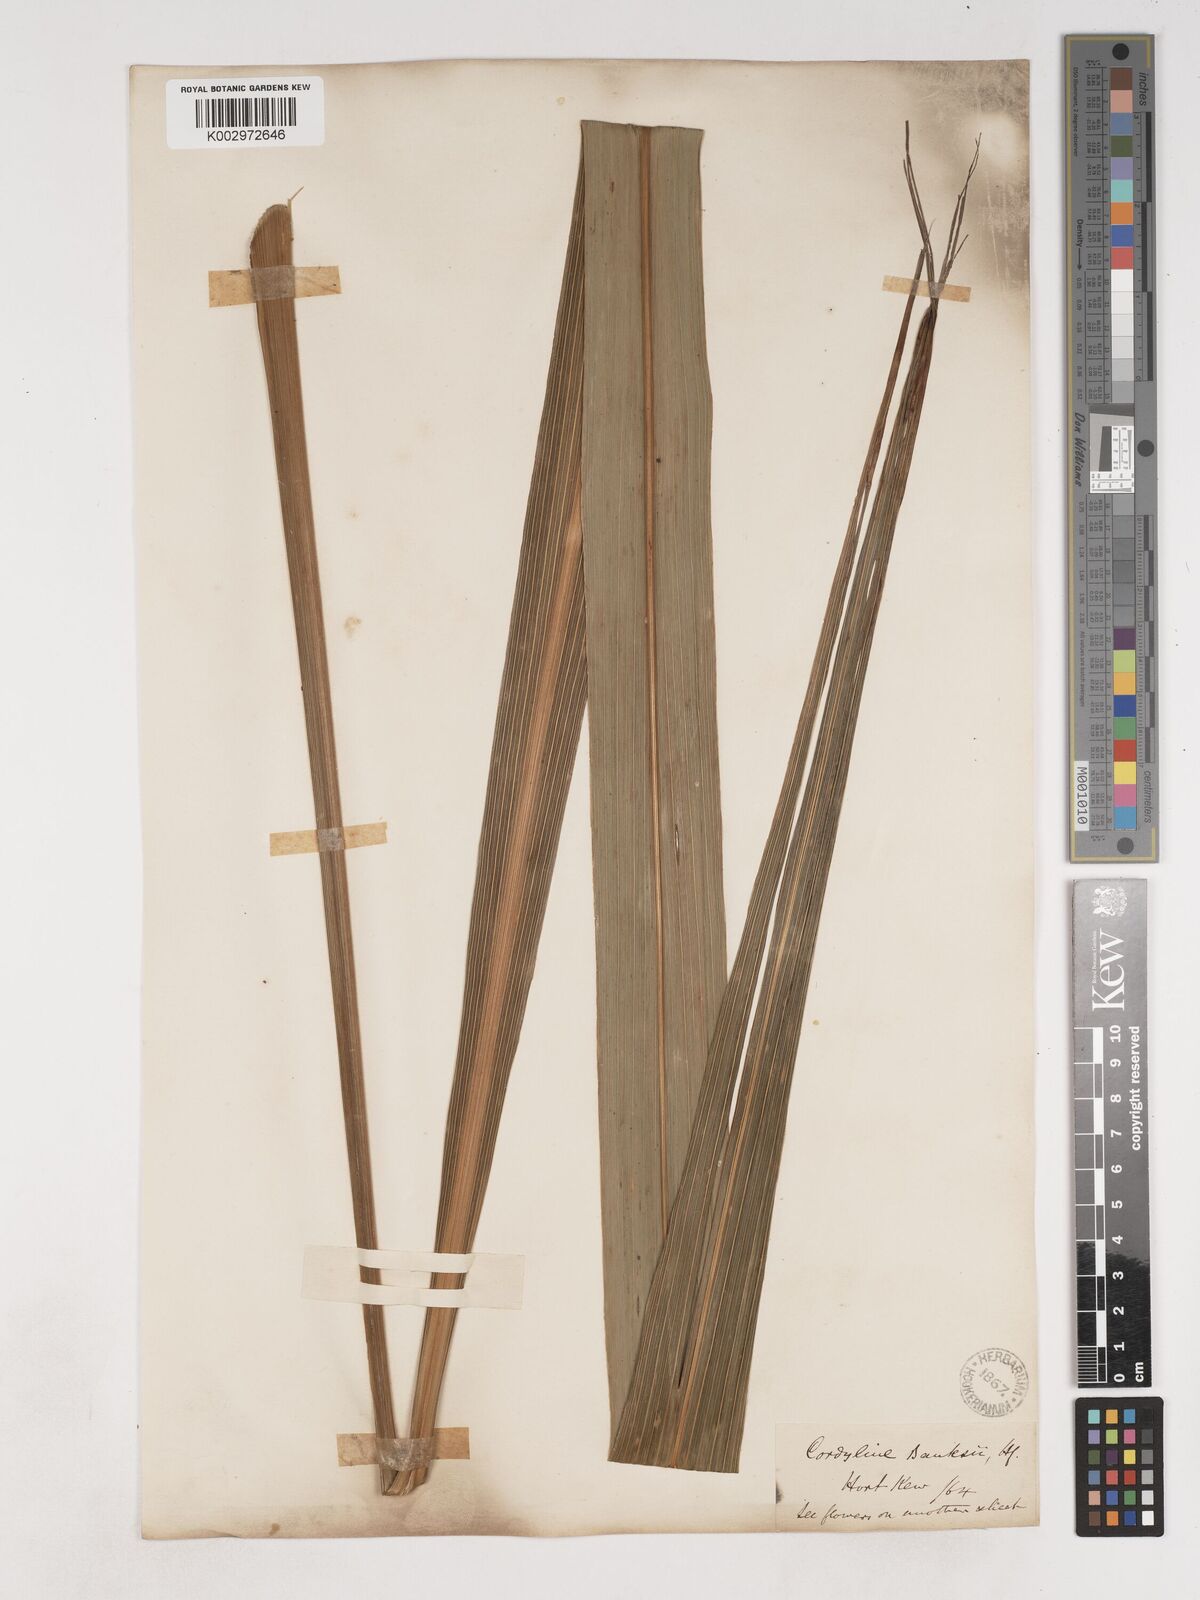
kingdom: Plantae
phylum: Tracheophyta
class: Liliopsida
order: Asparagales
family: Asparagaceae
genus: Cordyline
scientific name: Cordyline banksii
